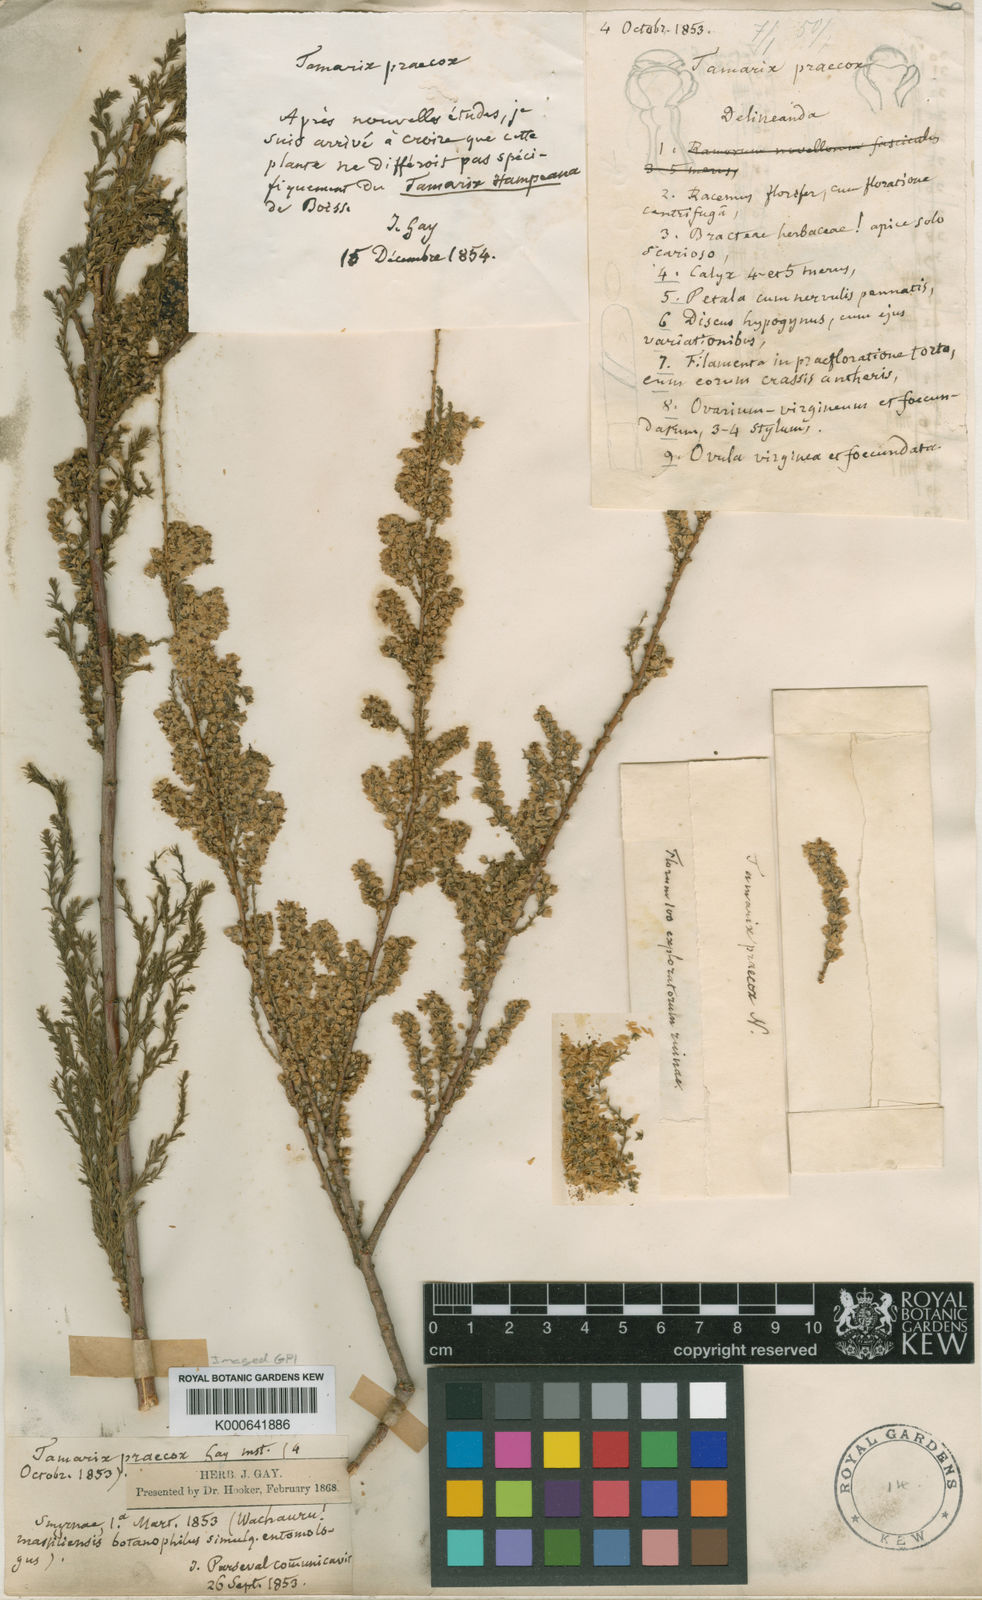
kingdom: Plantae
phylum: Tracheophyta
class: Magnoliopsida
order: Caryophyllales
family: Tamaricaceae
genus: Tamarix
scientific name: Tamarix hampeana
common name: Hampe’s tamarisk
